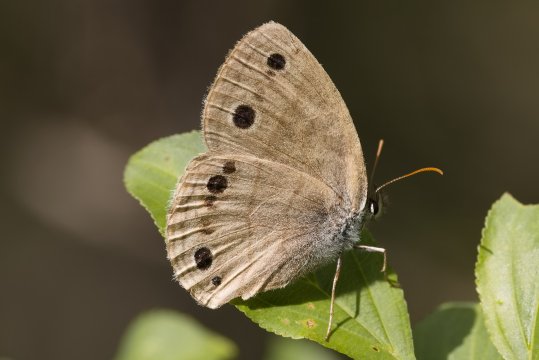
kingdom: Animalia
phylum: Arthropoda
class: Insecta
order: Lepidoptera
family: Nymphalidae
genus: Euptychia
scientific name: Euptychia cymela
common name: Little Wood Satyr
